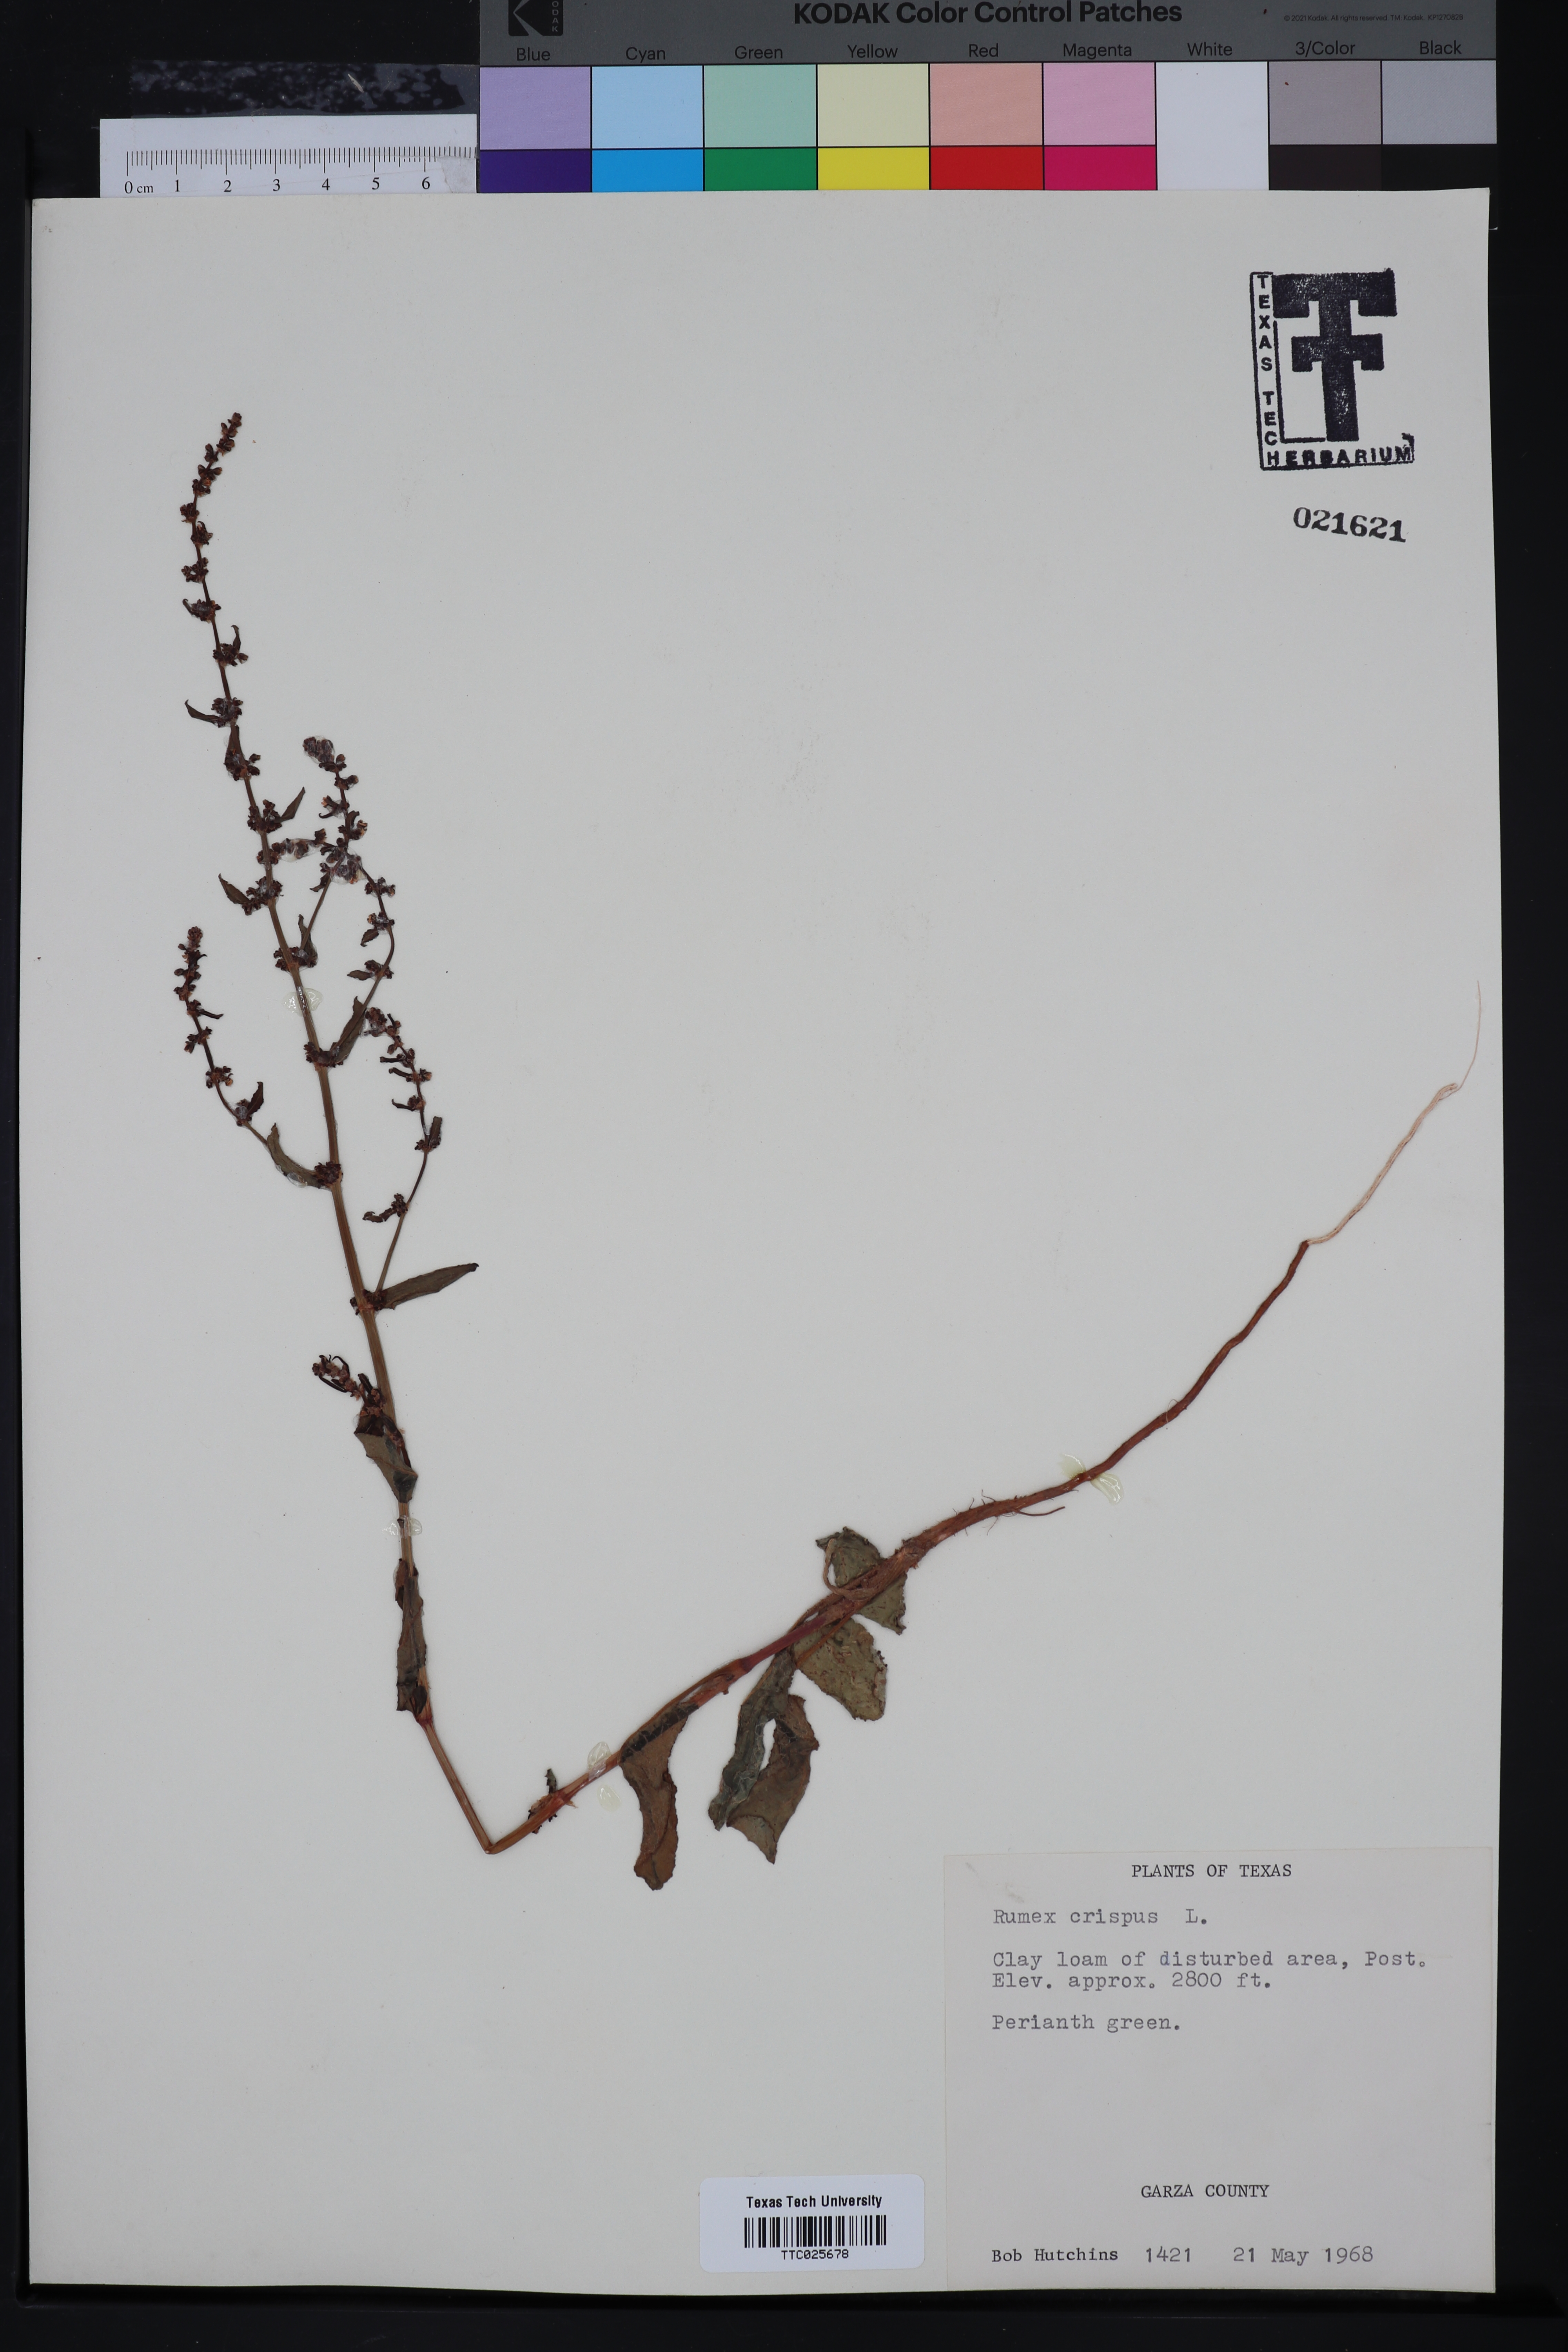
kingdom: Plantae
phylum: Tracheophyta
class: Magnoliopsida
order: Caryophyllales
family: Polygonaceae
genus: Rumex
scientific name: Rumex crispus
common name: Curled dock
